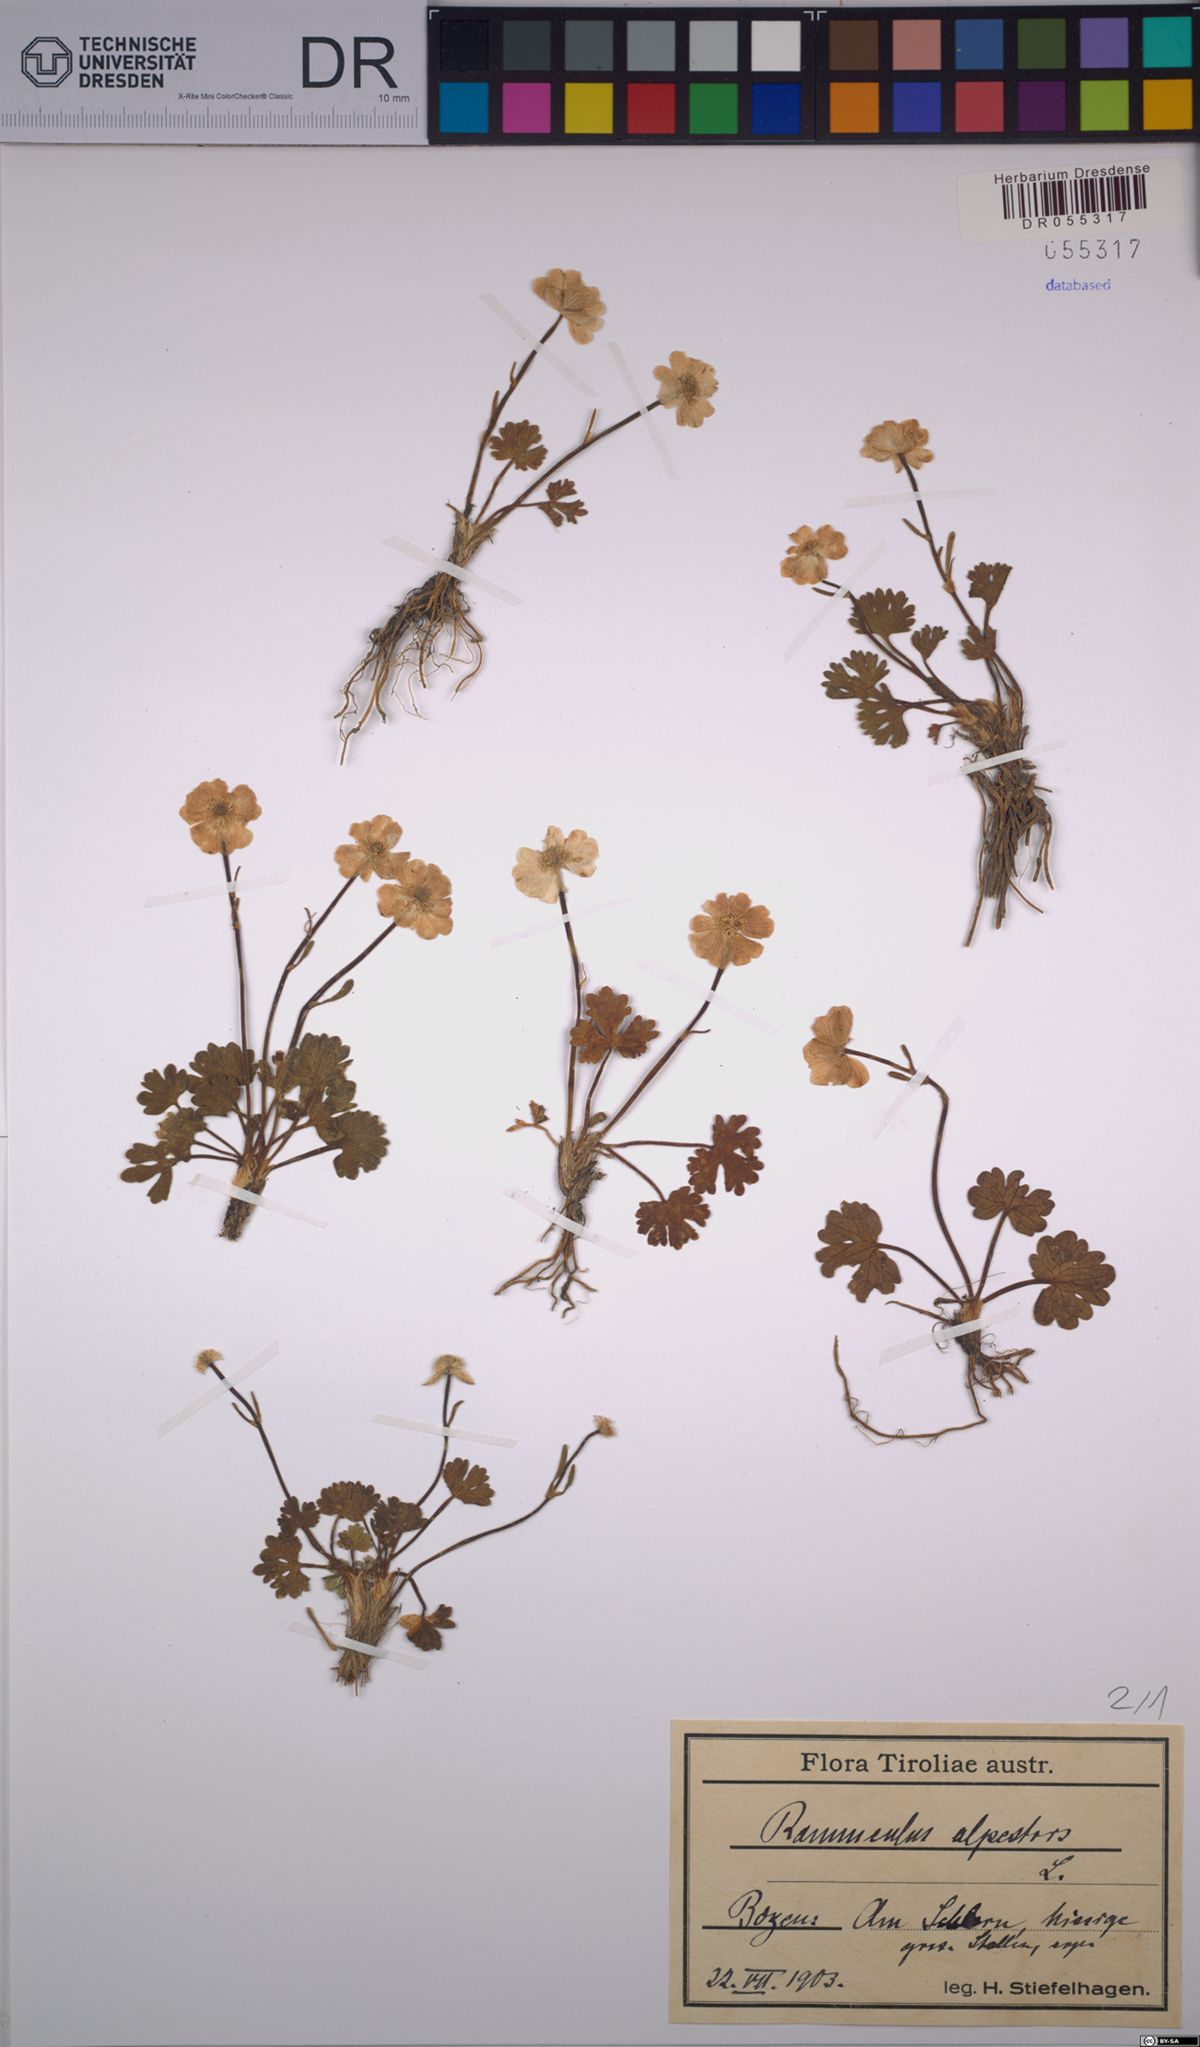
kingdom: Plantae
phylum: Tracheophyta
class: Magnoliopsida
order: Ranunculales
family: Ranunculaceae
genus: Ranunculus
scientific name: Ranunculus alpestris
